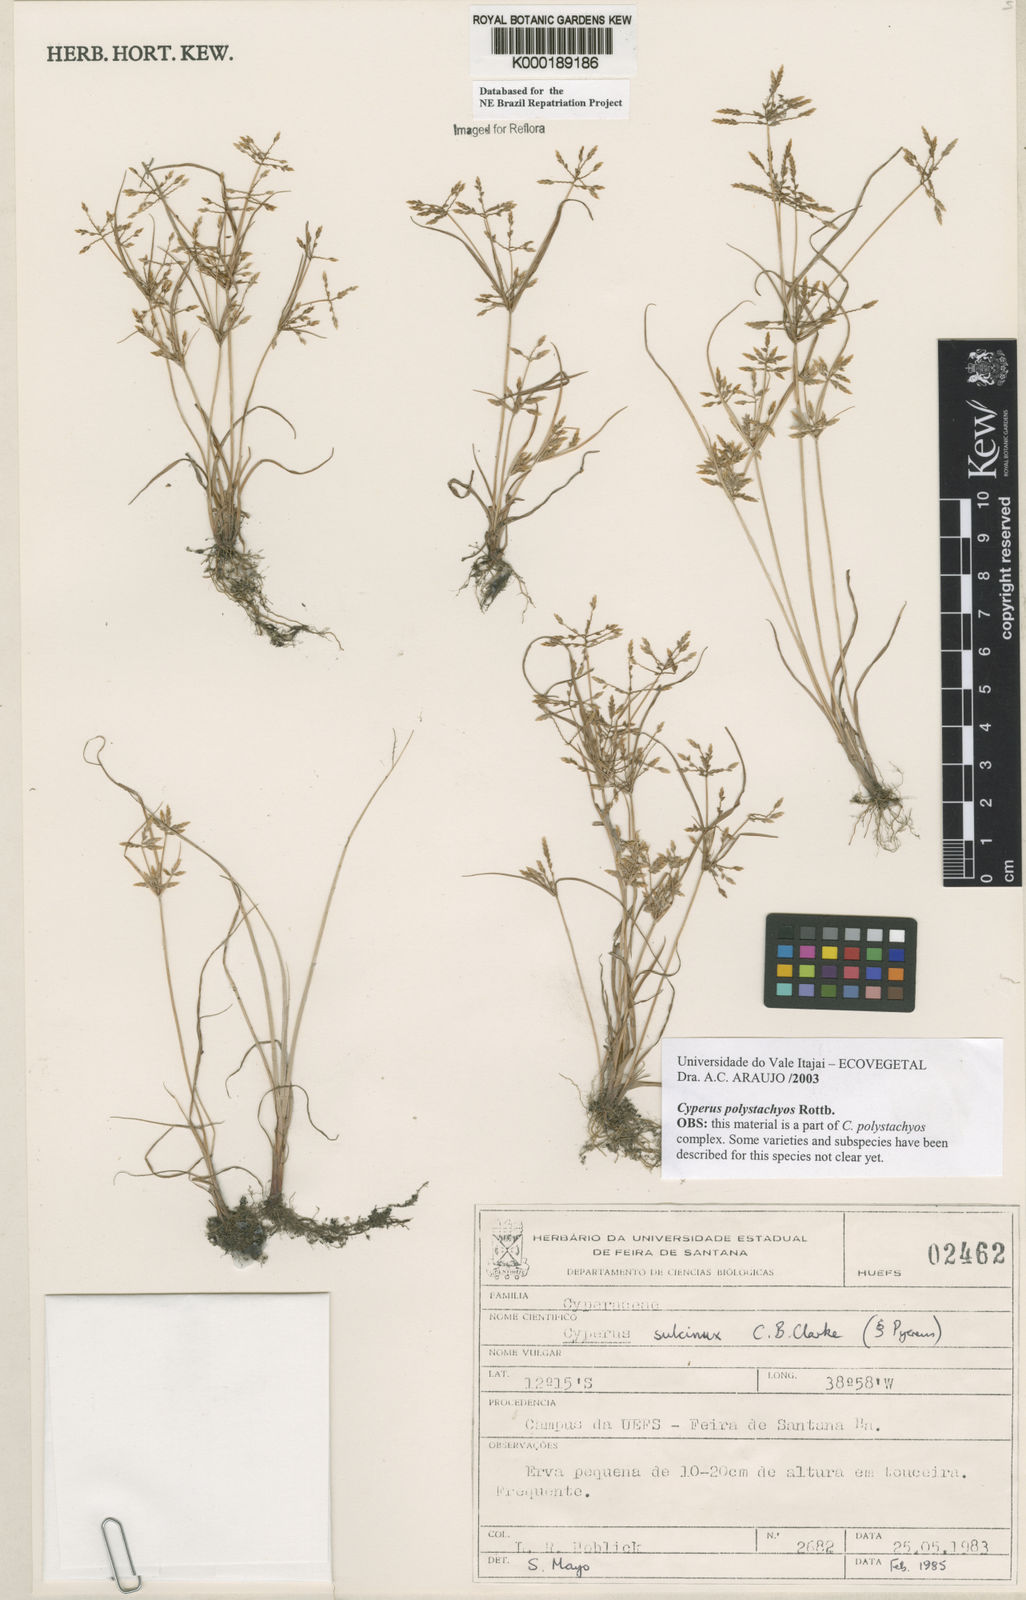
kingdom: Plantae
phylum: Tracheophyta
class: Liliopsida
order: Poales
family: Cyperaceae
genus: Cyperus
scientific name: Cyperus polystachyos
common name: Bunchy flat sedge
